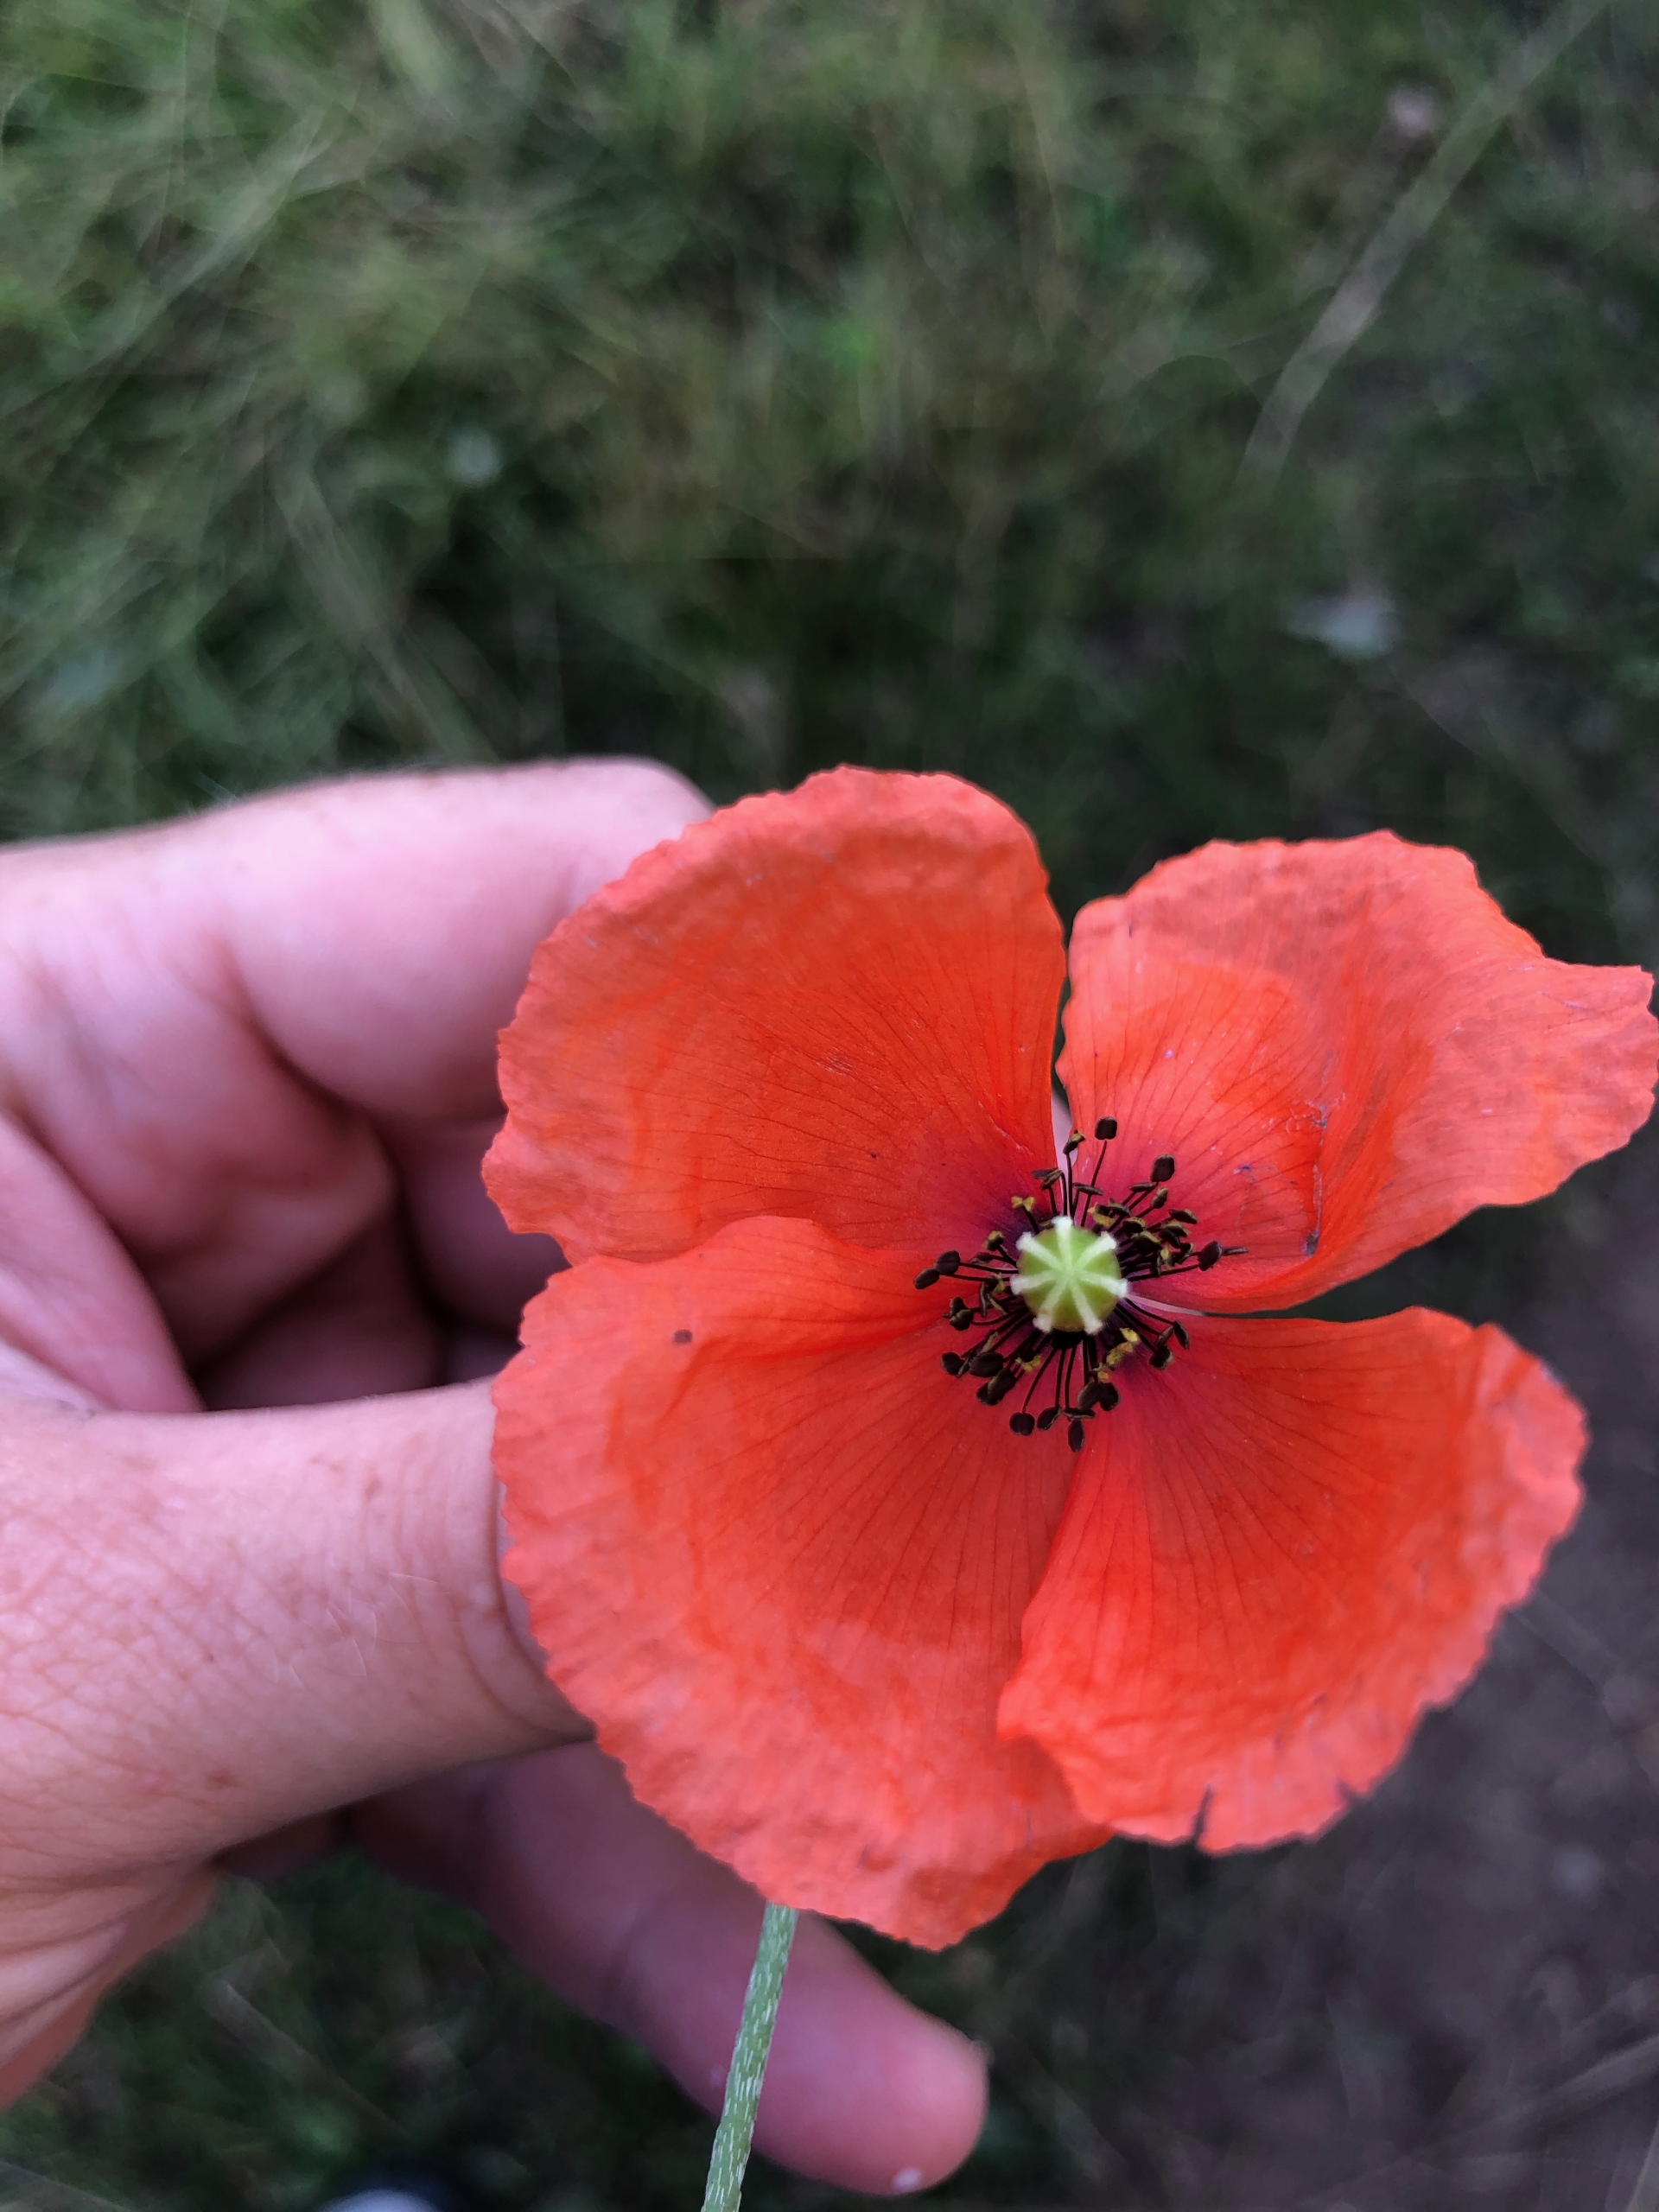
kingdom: Plantae
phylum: Tracheophyta
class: Magnoliopsida
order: Ranunculales
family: Papaveraceae
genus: Papaver
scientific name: Papaver dubium
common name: Gærde-valmue
